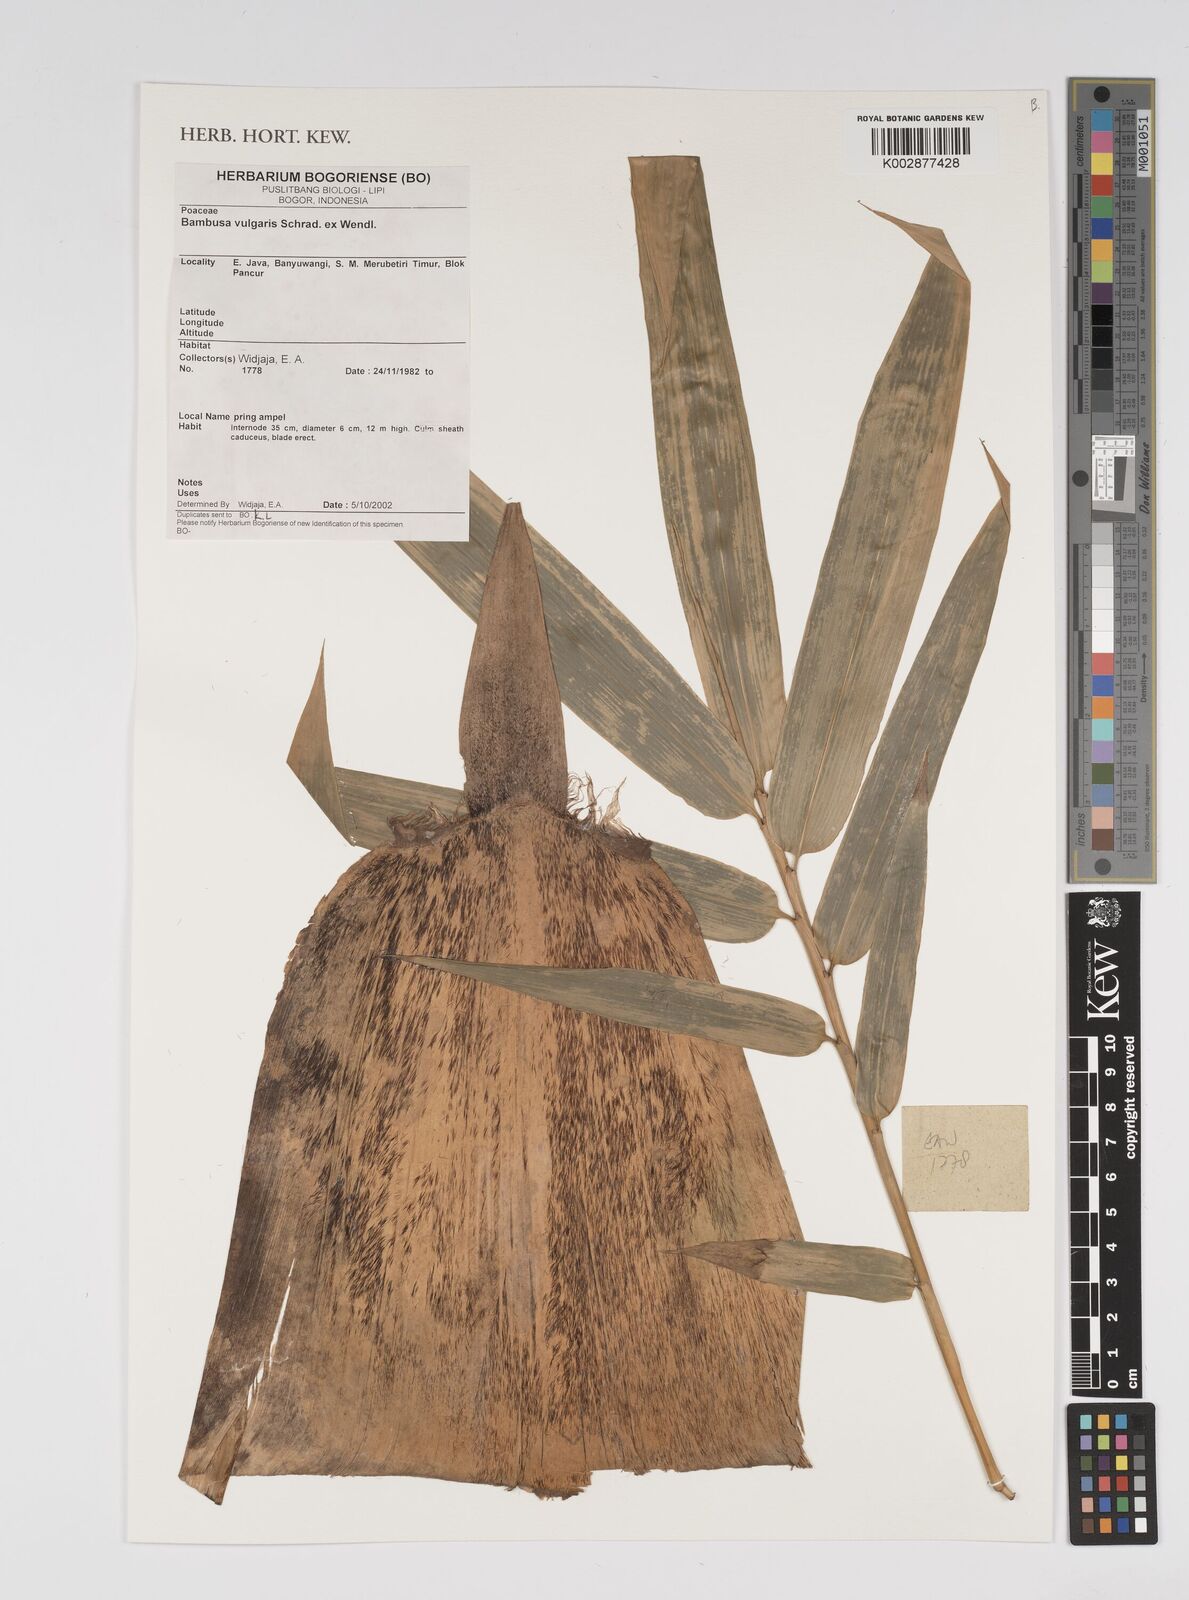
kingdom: Plantae
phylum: Tracheophyta
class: Liliopsida
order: Poales
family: Poaceae
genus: Bambusa
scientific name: Bambusa vulgaris
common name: Common bamboo
